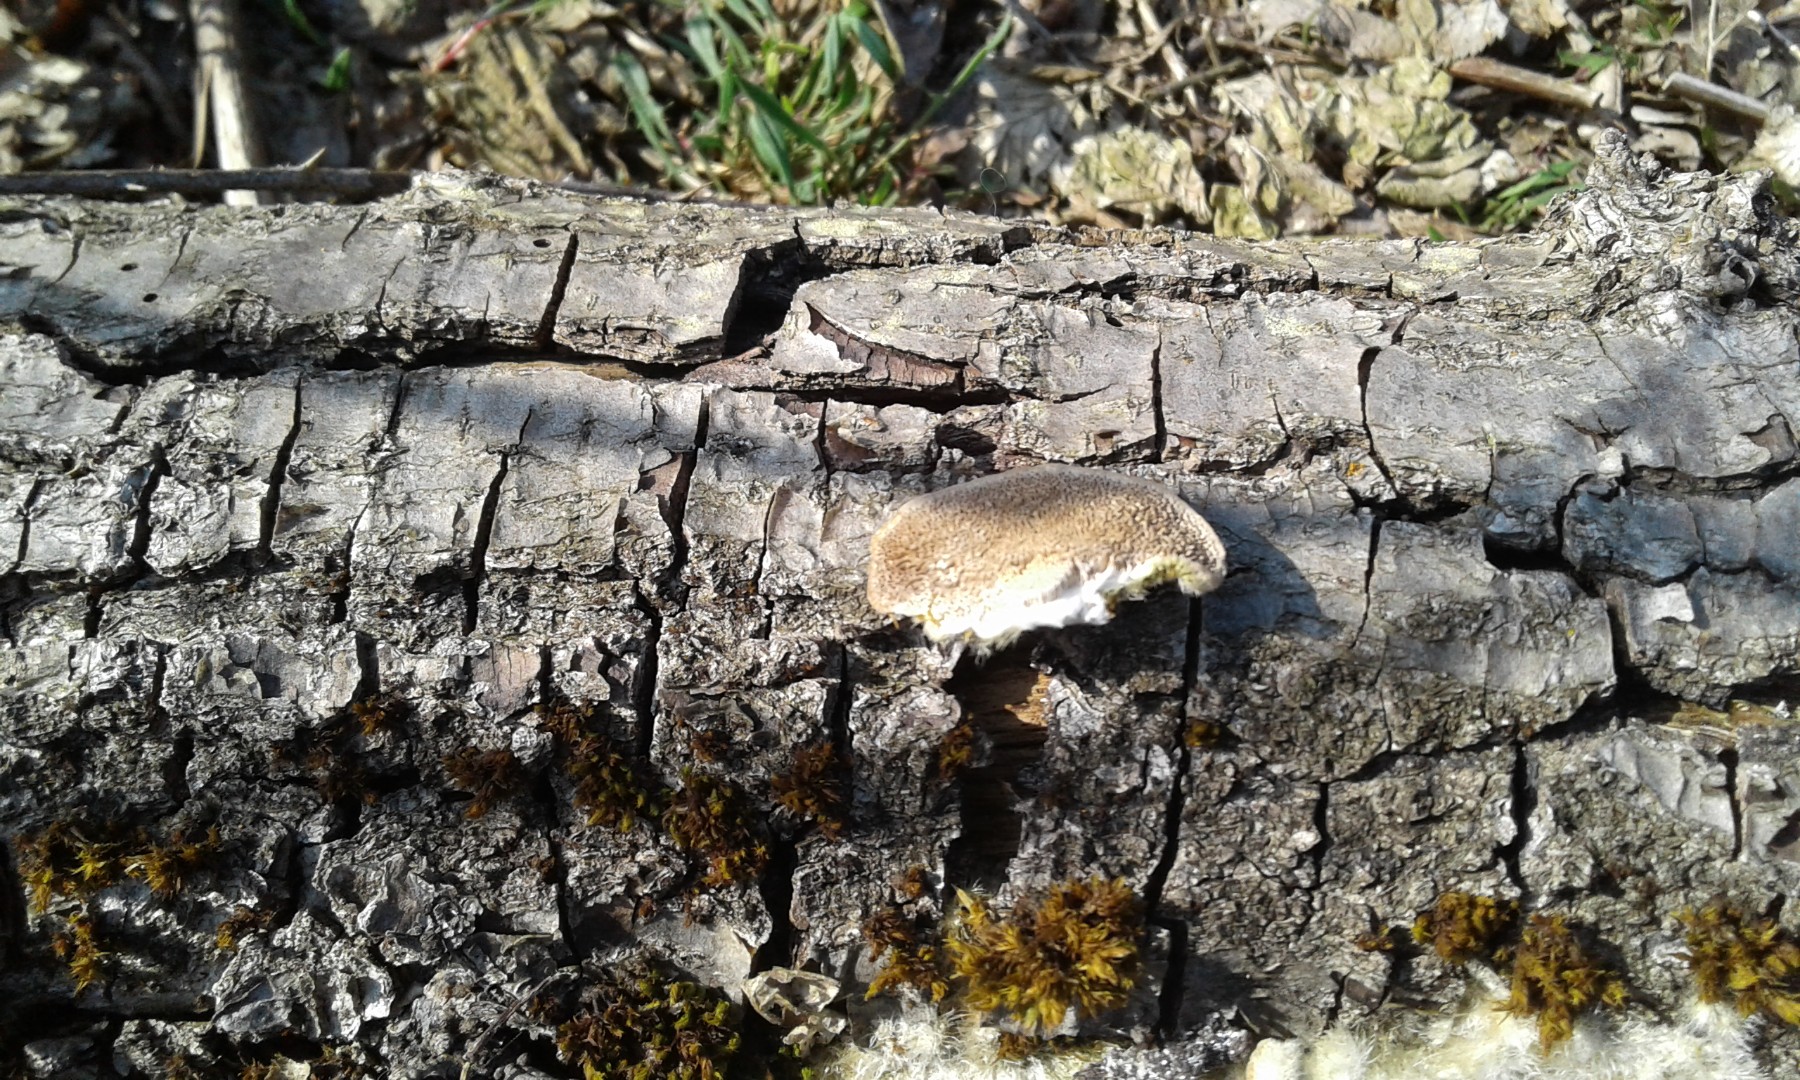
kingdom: Fungi
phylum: Basidiomycota
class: Agaricomycetes
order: Polyporales
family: Polyporaceae
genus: Trametes
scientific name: Trametes hirsuta
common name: håret læderporesvamp
